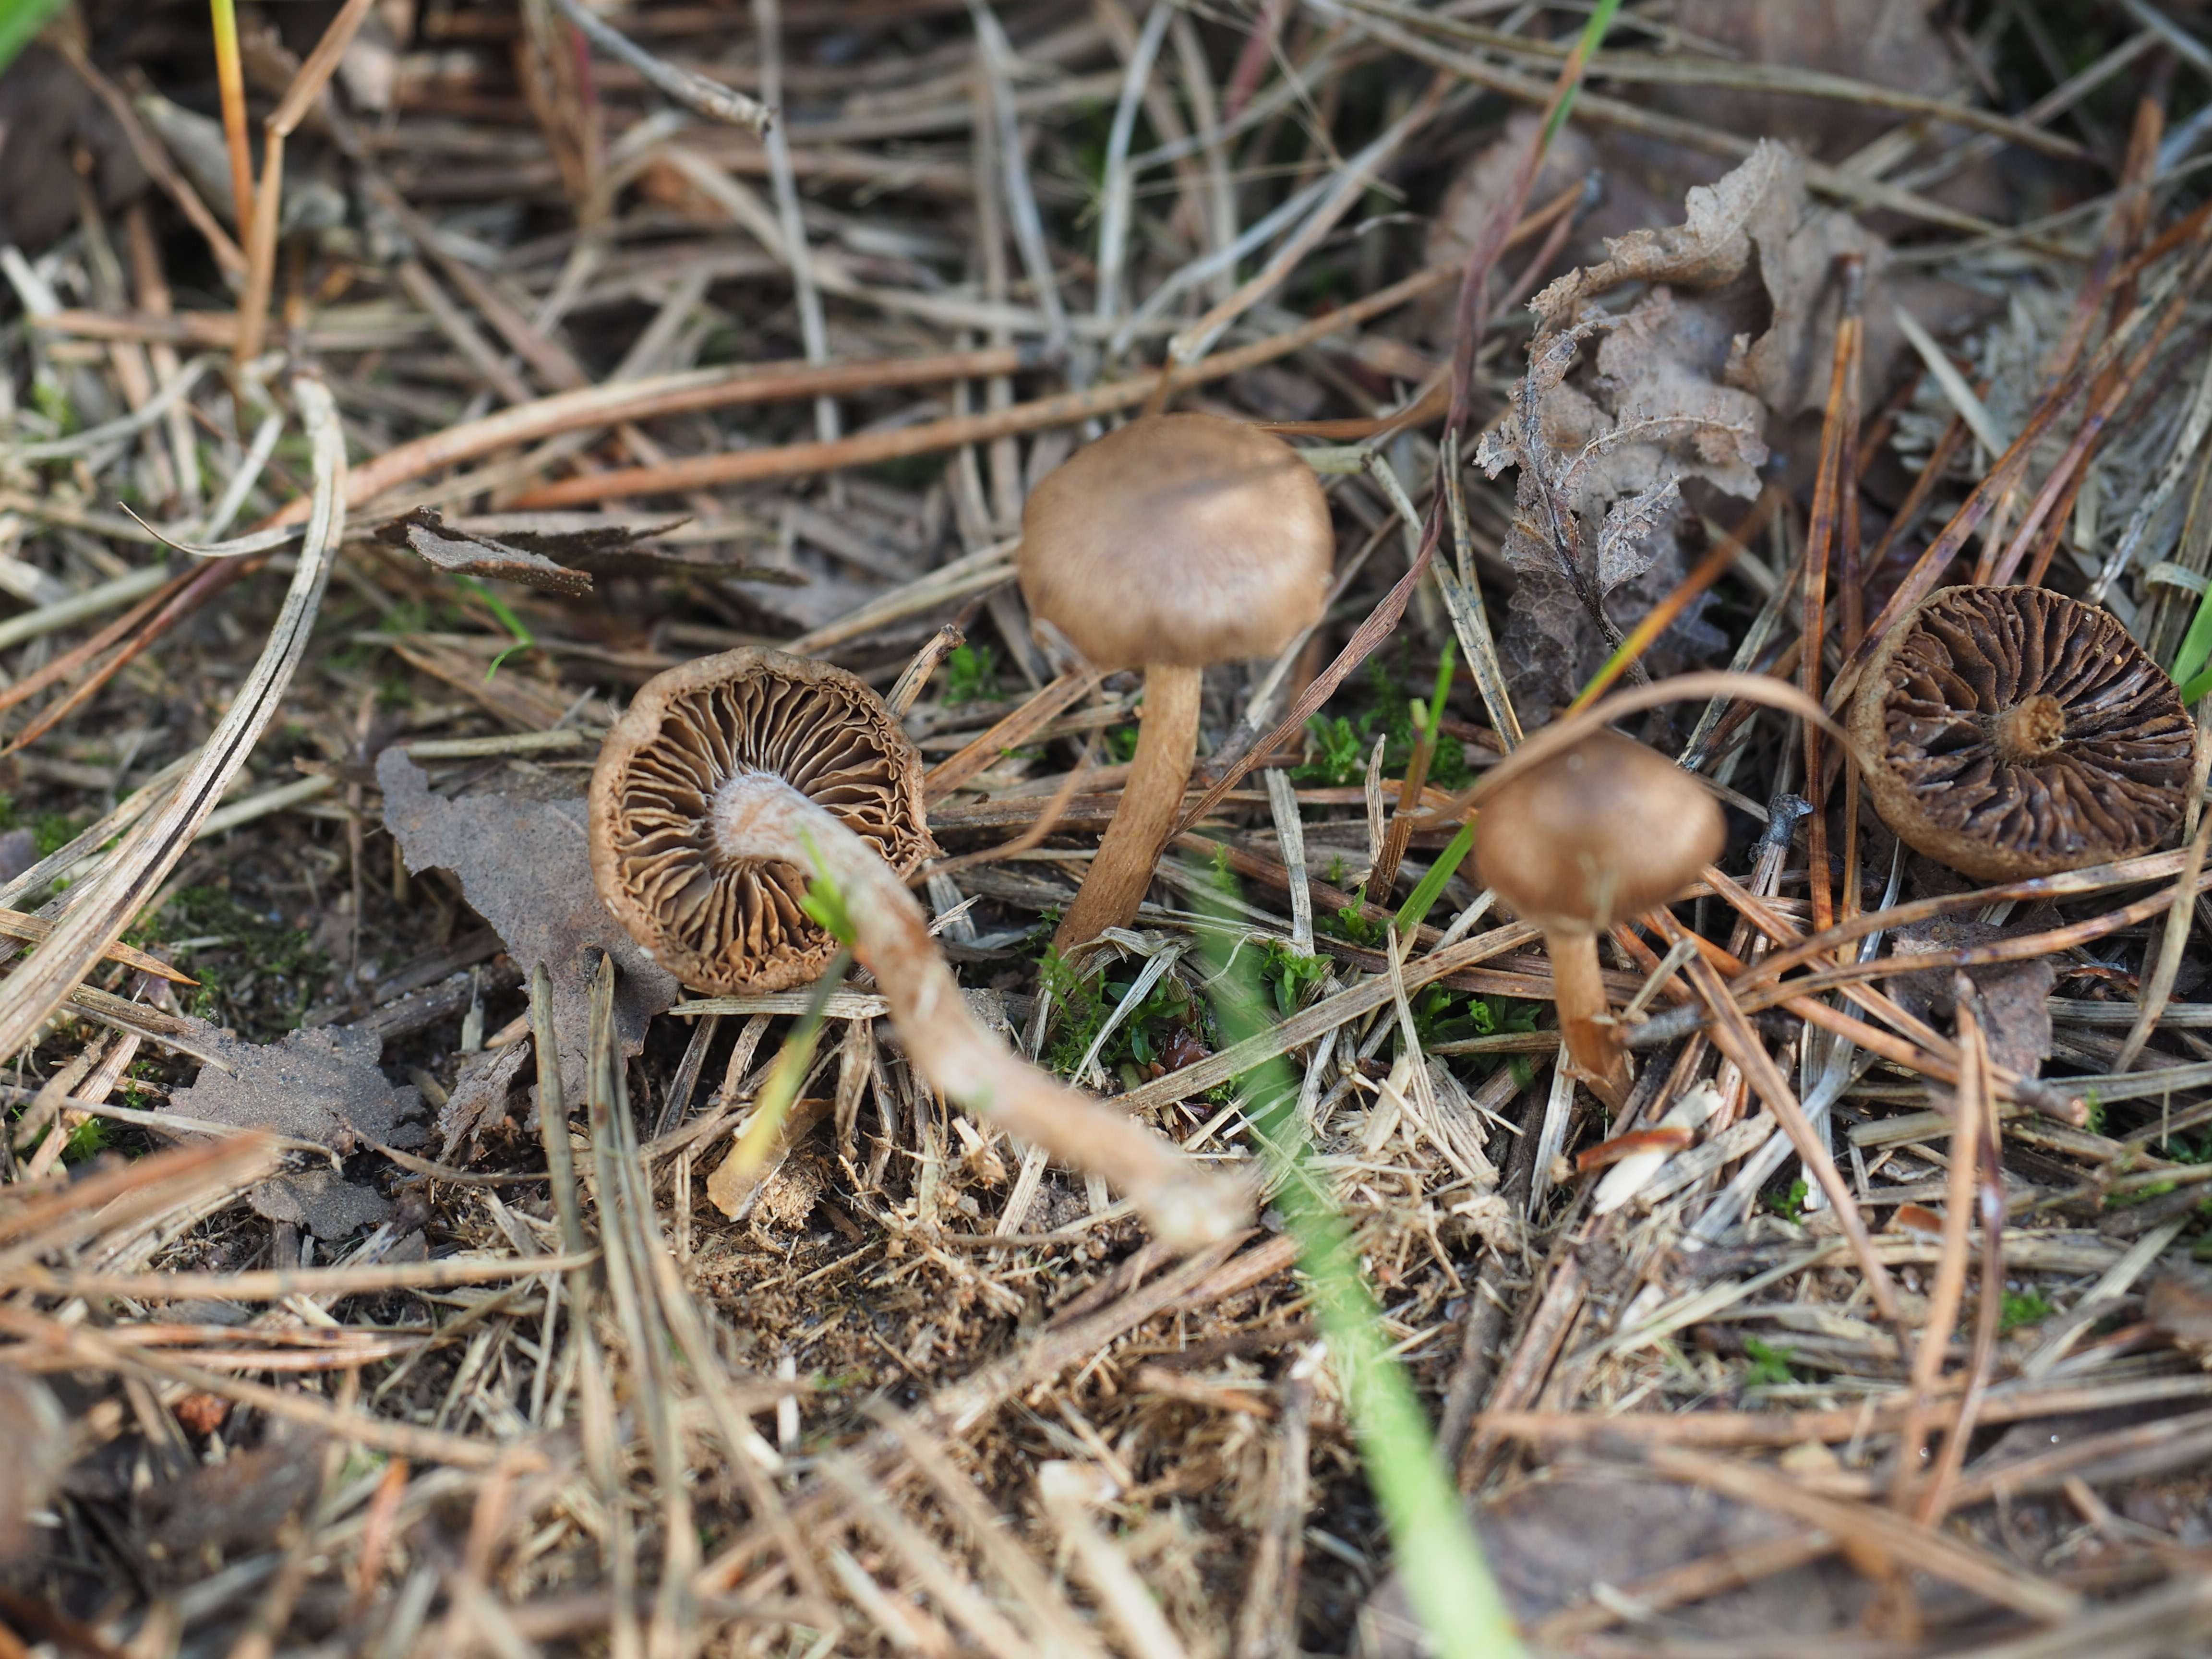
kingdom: Fungi
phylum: Basidiomycota
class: Agaricomycetes
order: Agaricales
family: Hymenogastraceae
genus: Psilocybe
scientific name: Psilocybe
